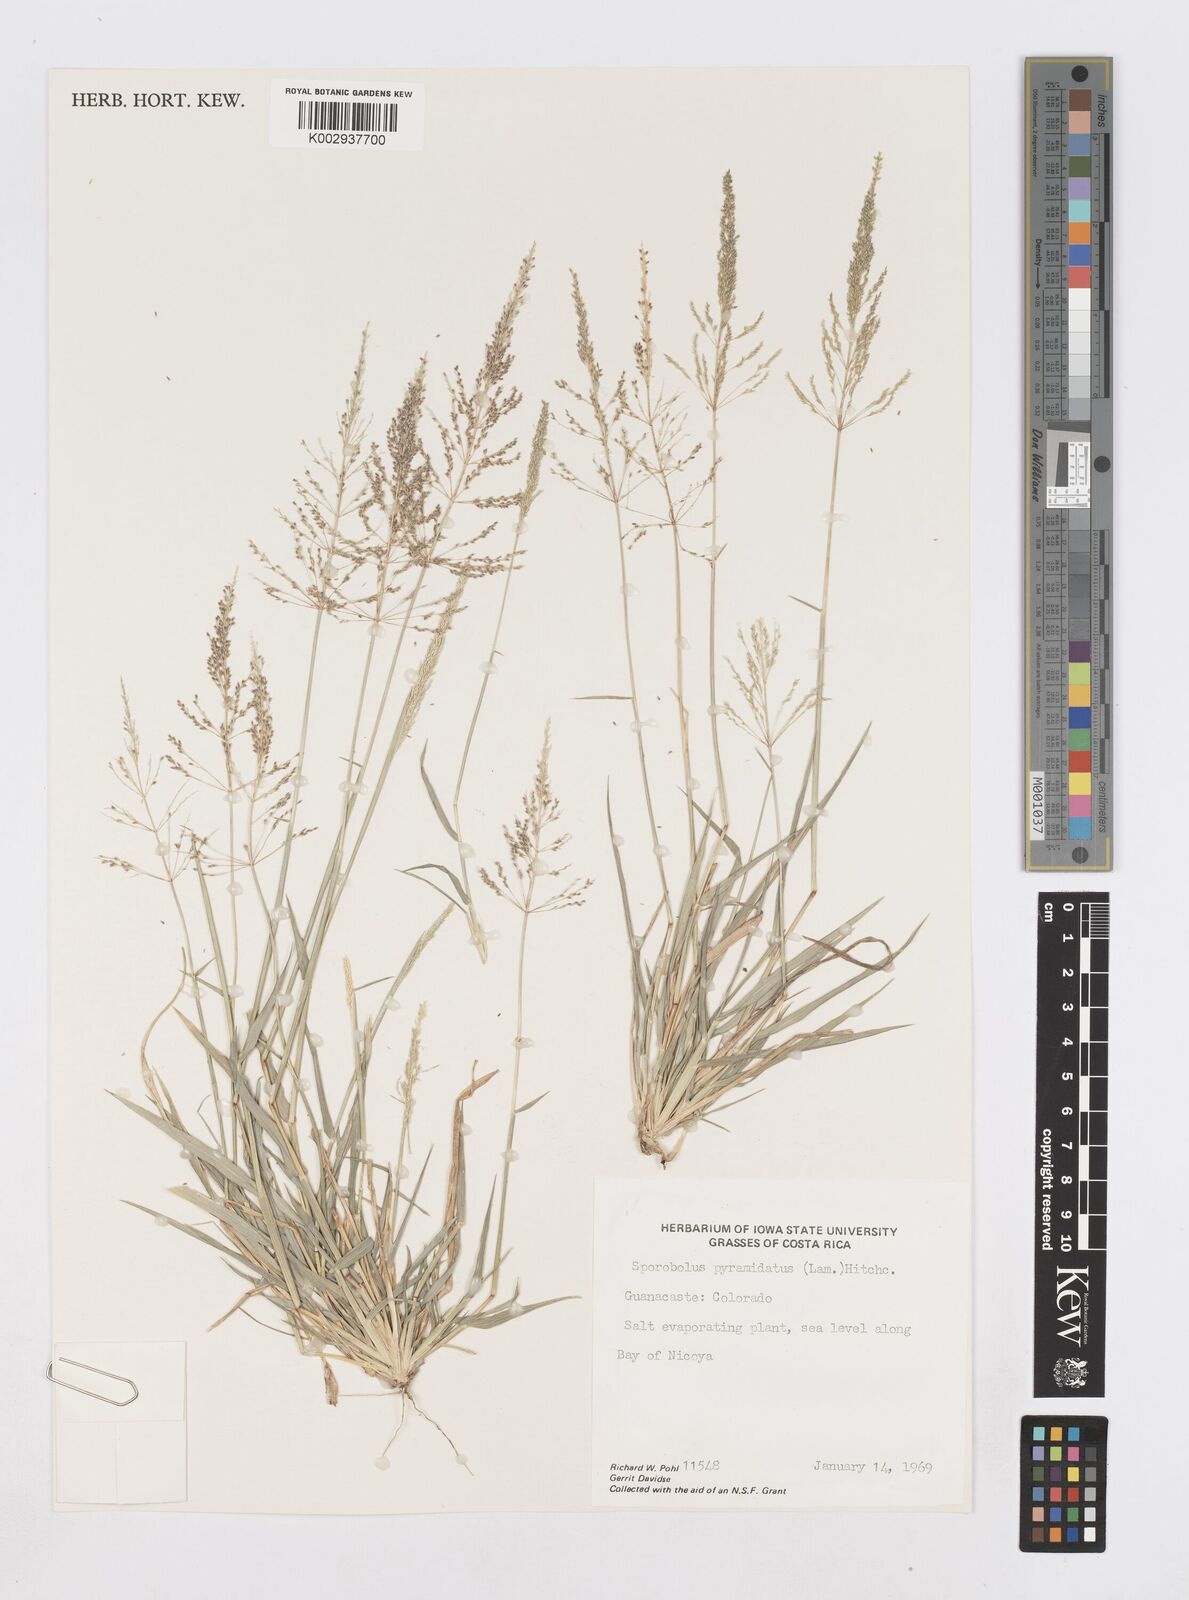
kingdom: Plantae
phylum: Tracheophyta
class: Liliopsida
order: Poales
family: Poaceae
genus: Sporobolus
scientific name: Sporobolus pyramidatus
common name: Whorled dropseed
